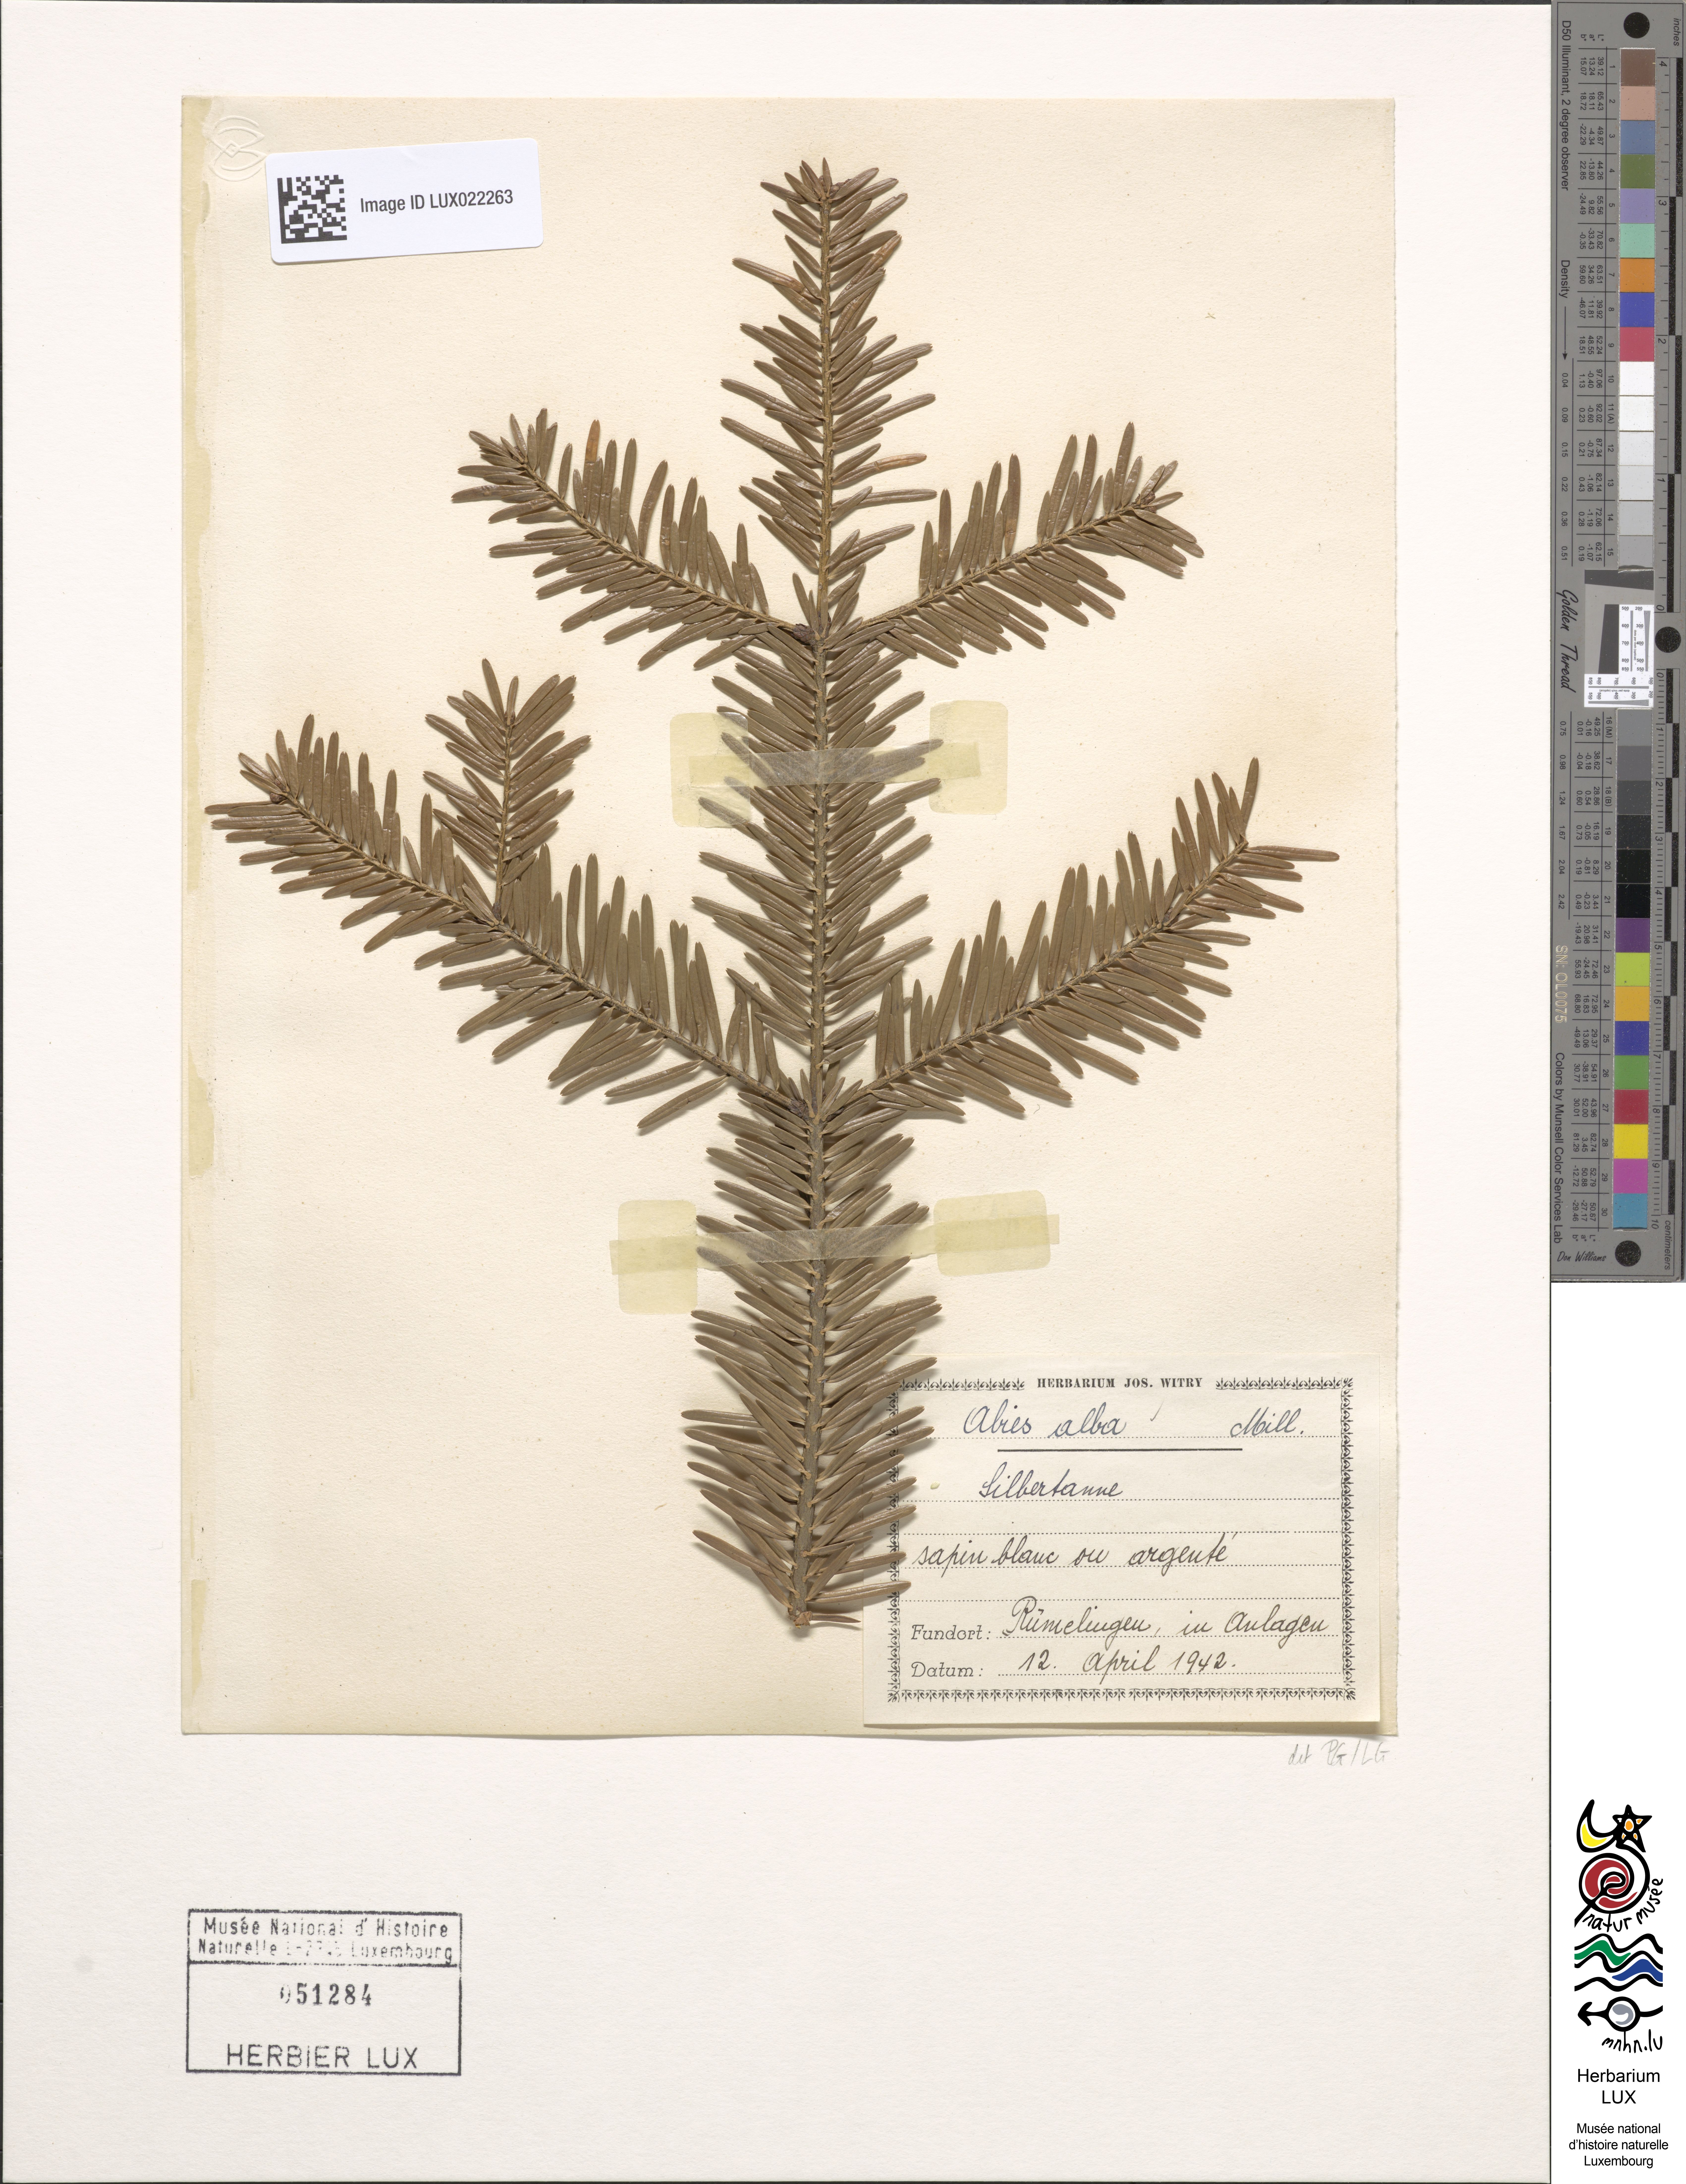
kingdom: Plantae
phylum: Tracheophyta
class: Pinopsida
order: Pinales
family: Pinaceae
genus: Abies
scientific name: Abies alba
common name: Silver fir
